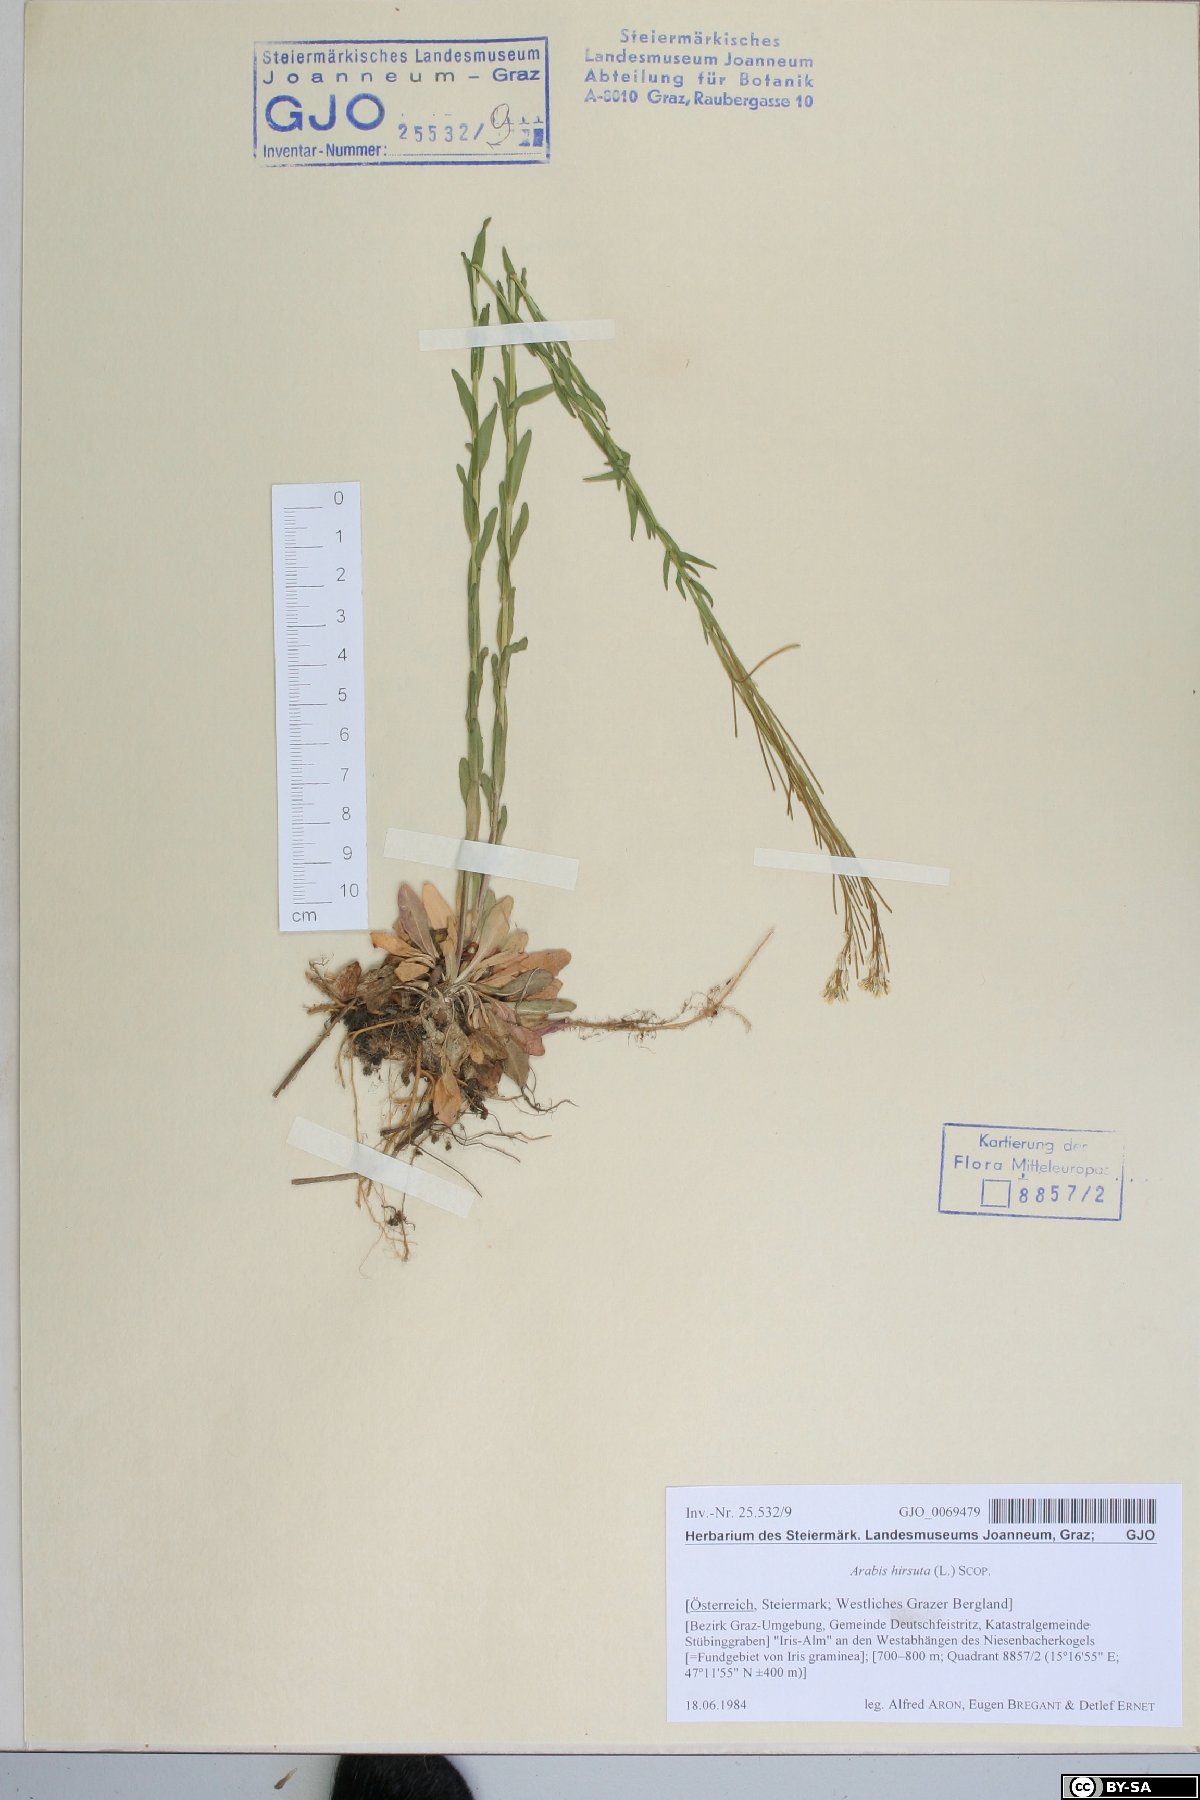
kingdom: Plantae
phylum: Tracheophyta
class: Magnoliopsida
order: Brassicales
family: Brassicaceae
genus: Arabis
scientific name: Arabis hirsuta
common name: Hairy rock-cress
